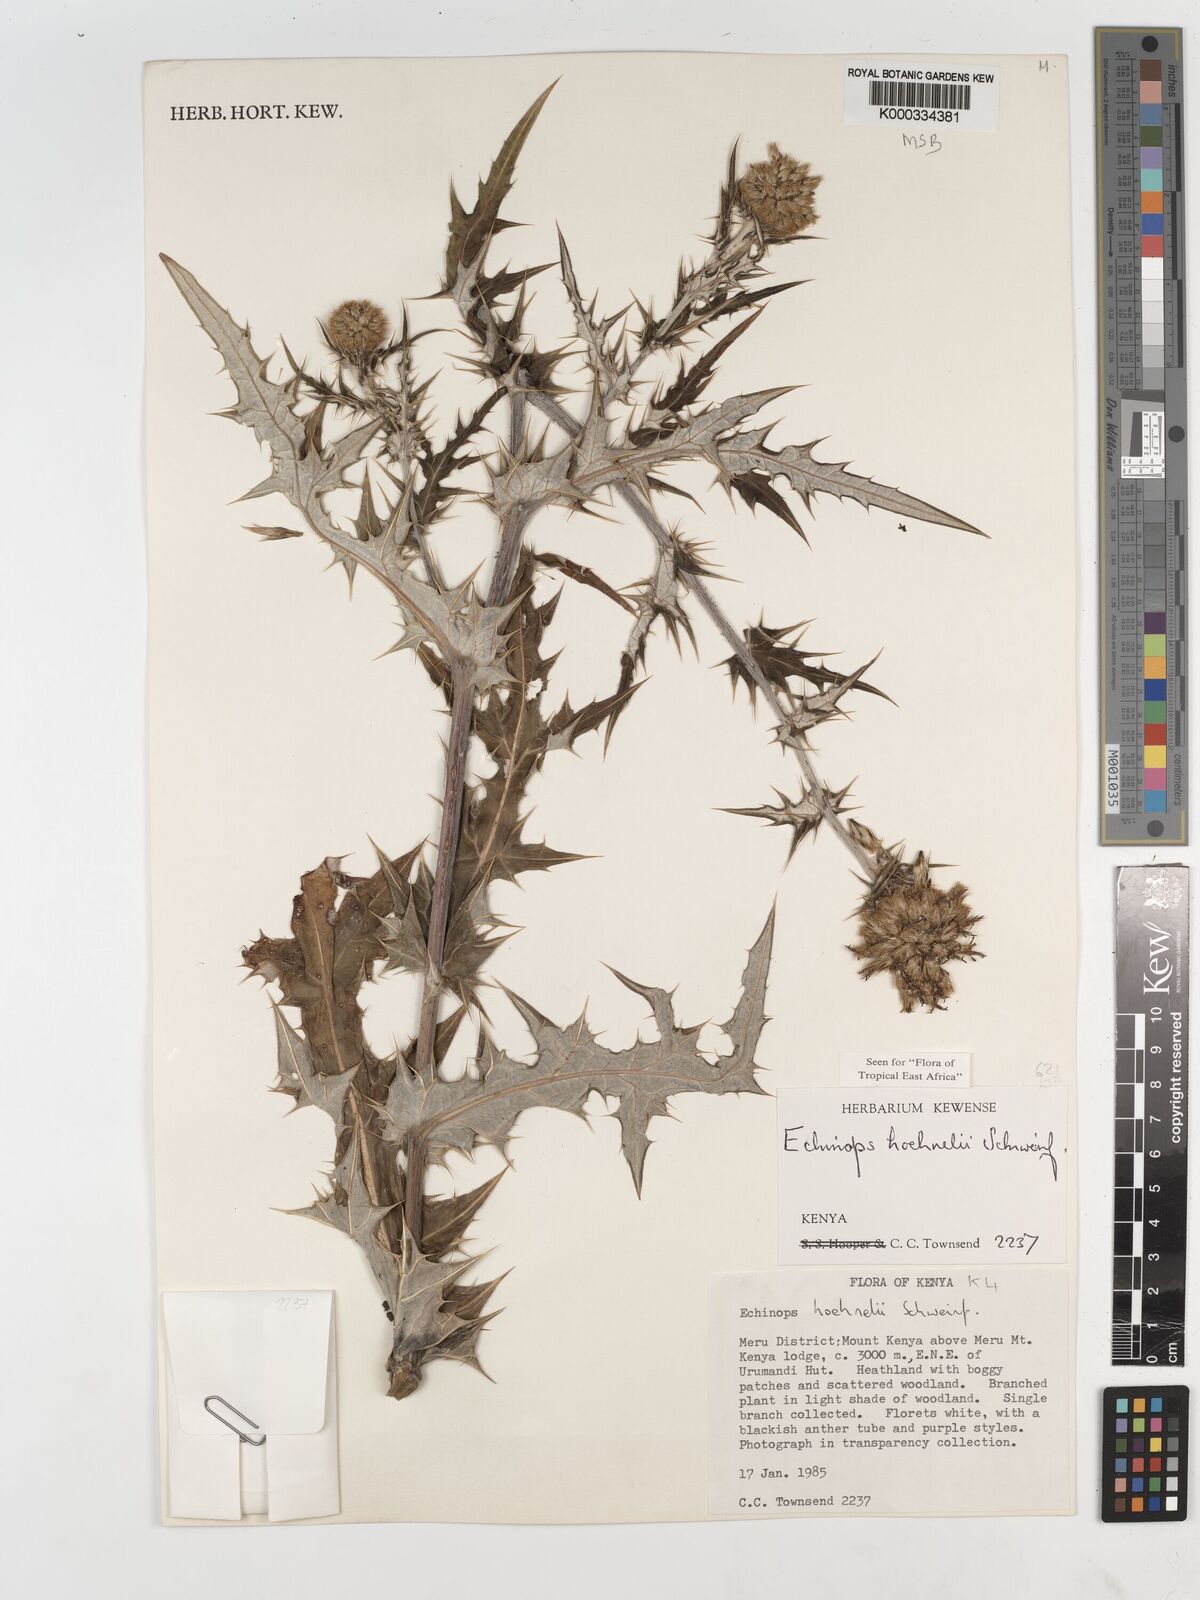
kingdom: Plantae
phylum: Tracheophyta
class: Magnoliopsida
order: Asterales
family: Asteraceae
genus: Echinops
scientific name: Echinops hoehnelii
